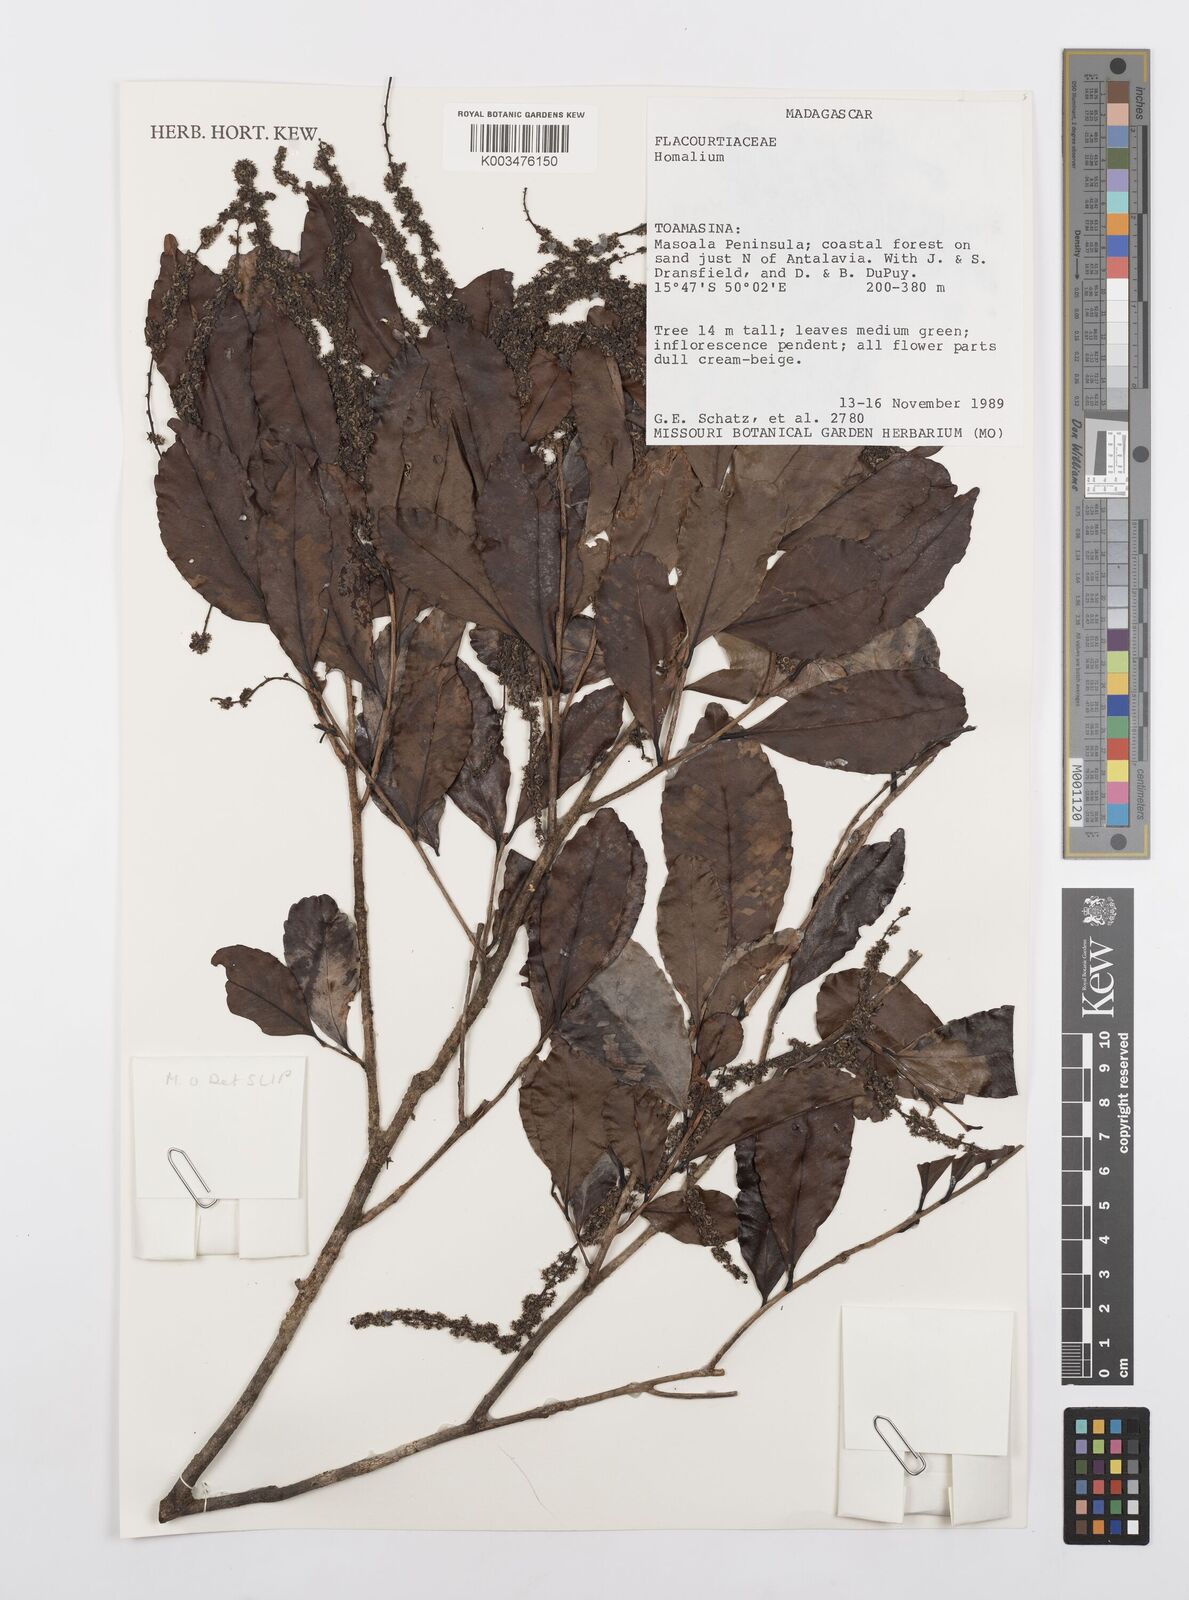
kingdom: Plantae
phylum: Tracheophyta
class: Magnoliopsida
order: Malpighiales
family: Salicaceae
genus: Homalium
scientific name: Homalium
